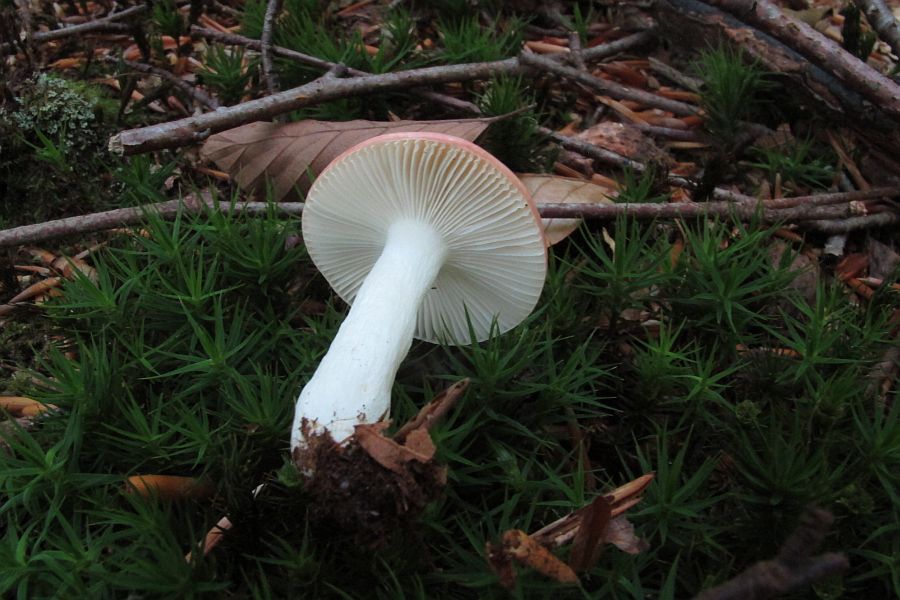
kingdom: Fungi
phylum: Basidiomycota
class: Agaricomycetes
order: Russulales
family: Russulaceae
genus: Russula
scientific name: Russula
